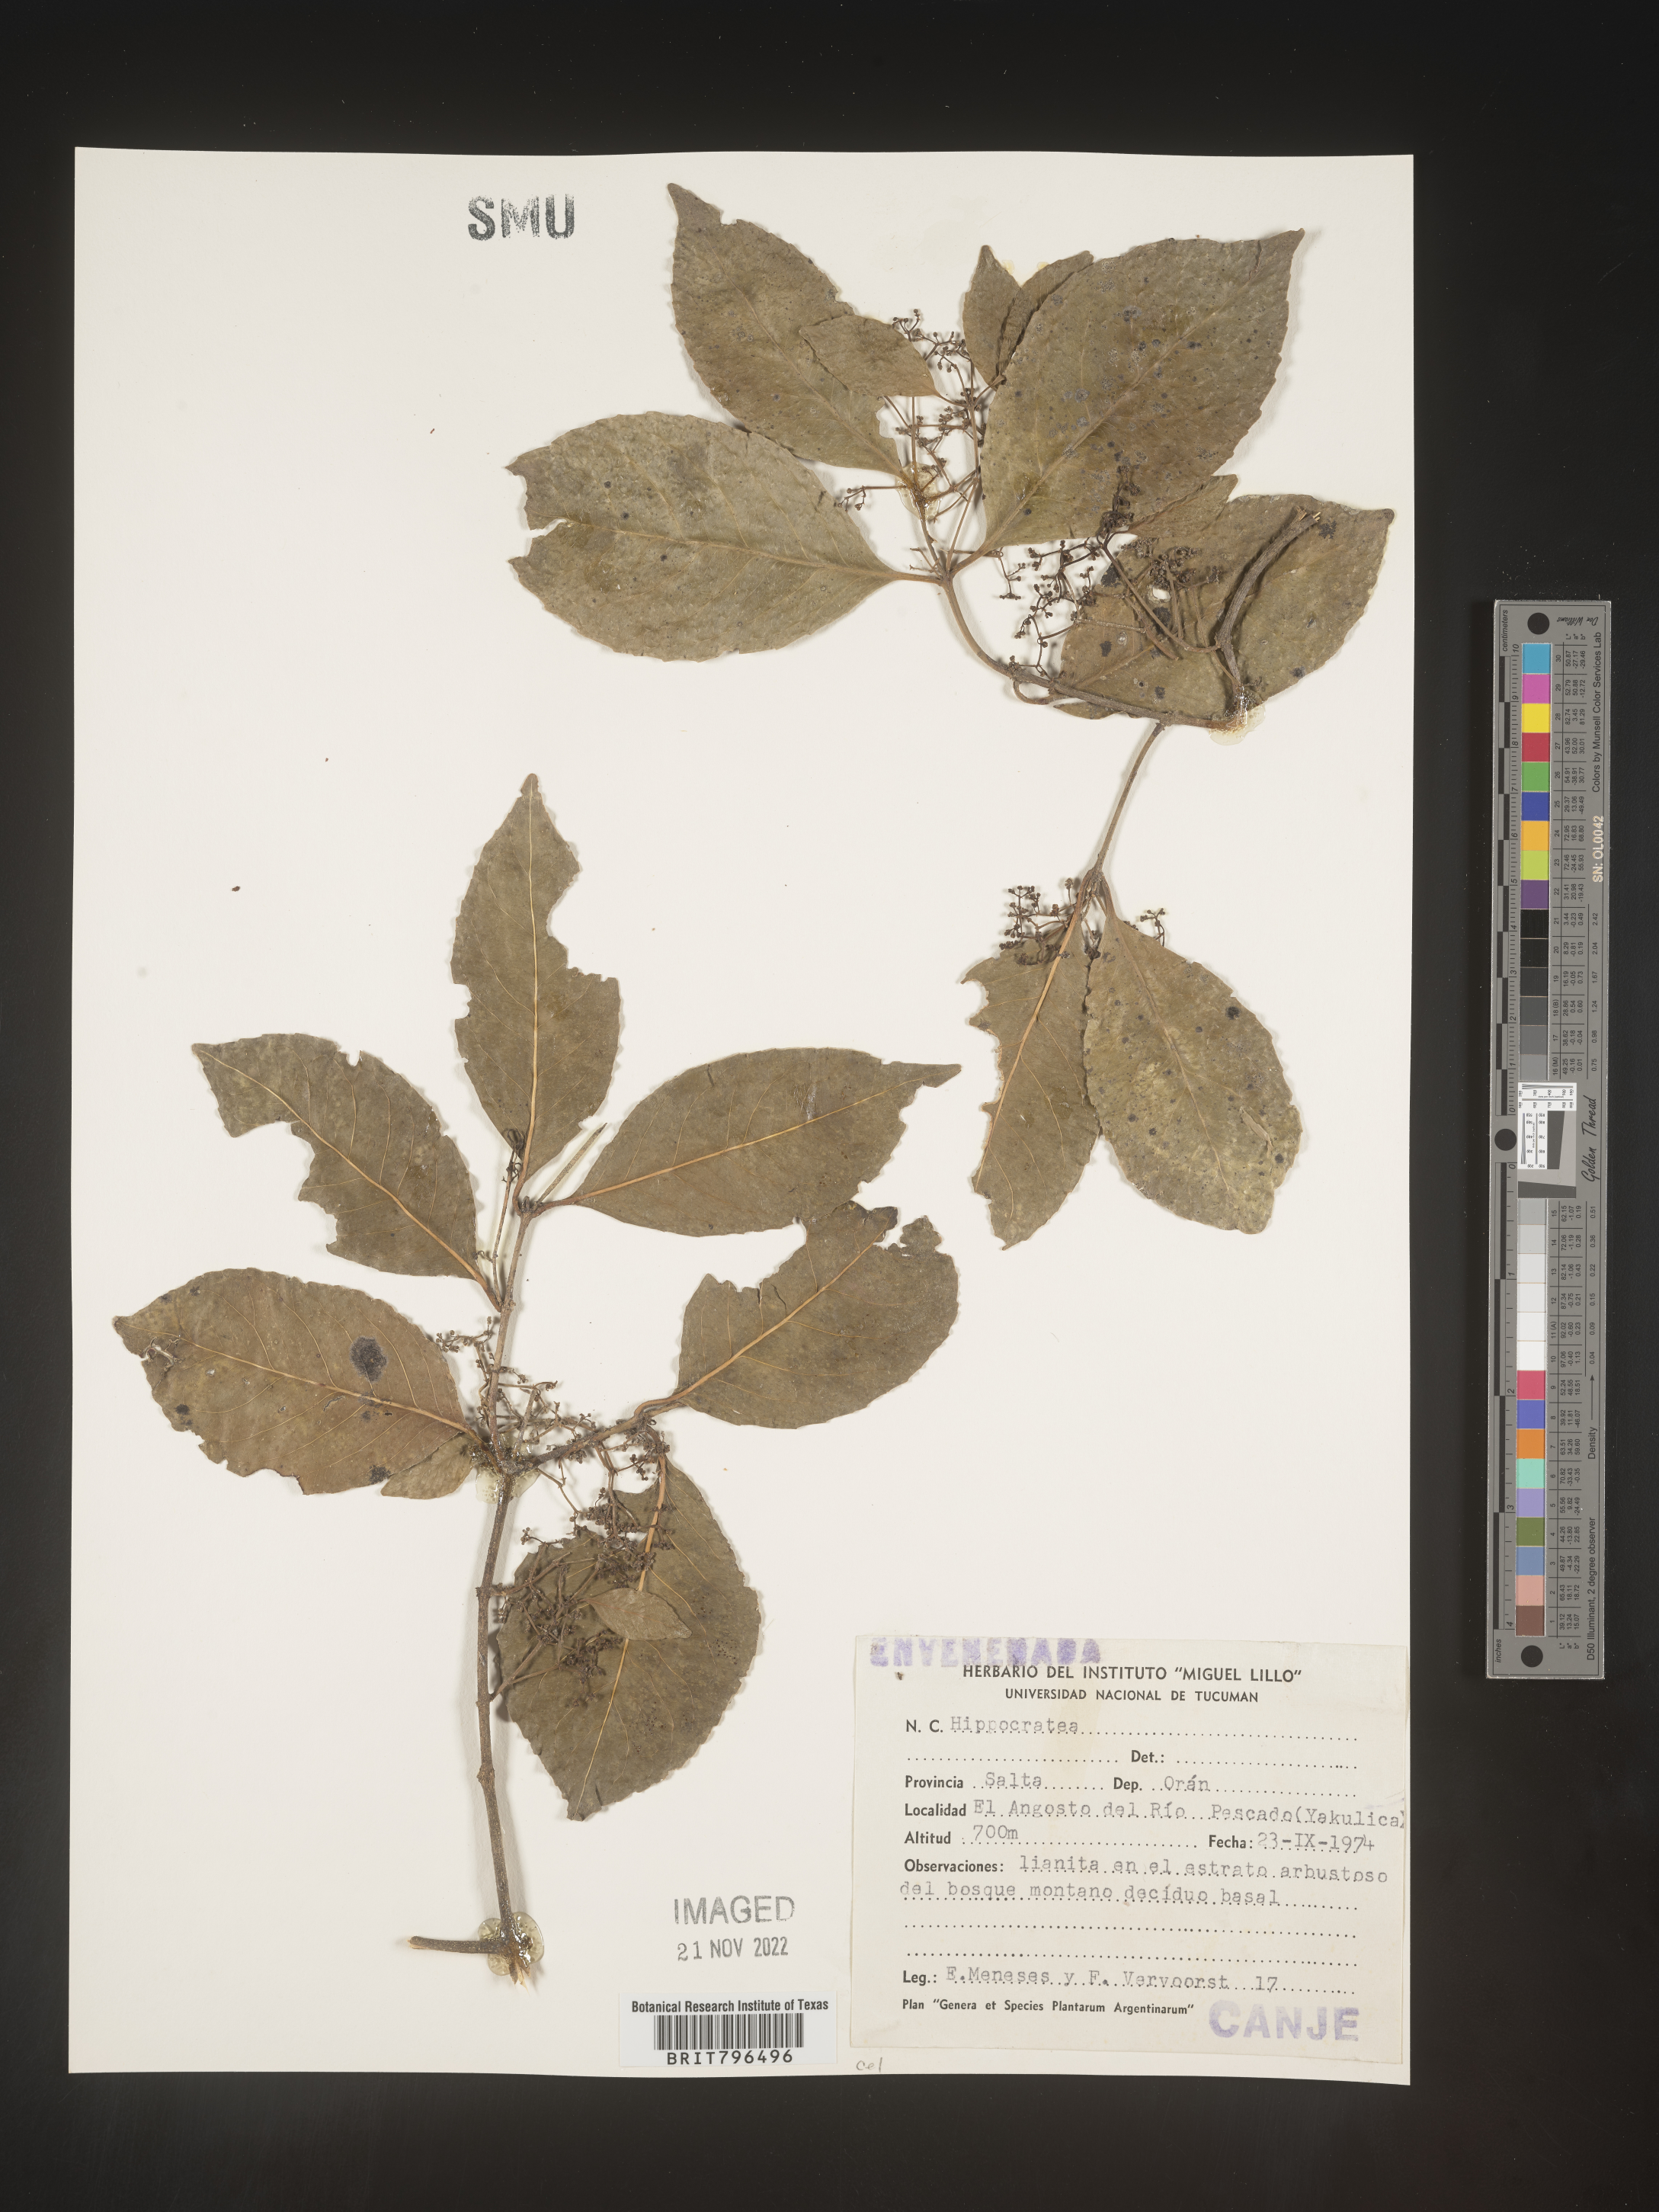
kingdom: Plantae
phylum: Tracheophyta
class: Magnoliopsida
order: Celastrales
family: Celastraceae
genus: Hippocratea
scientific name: Hippocratea
